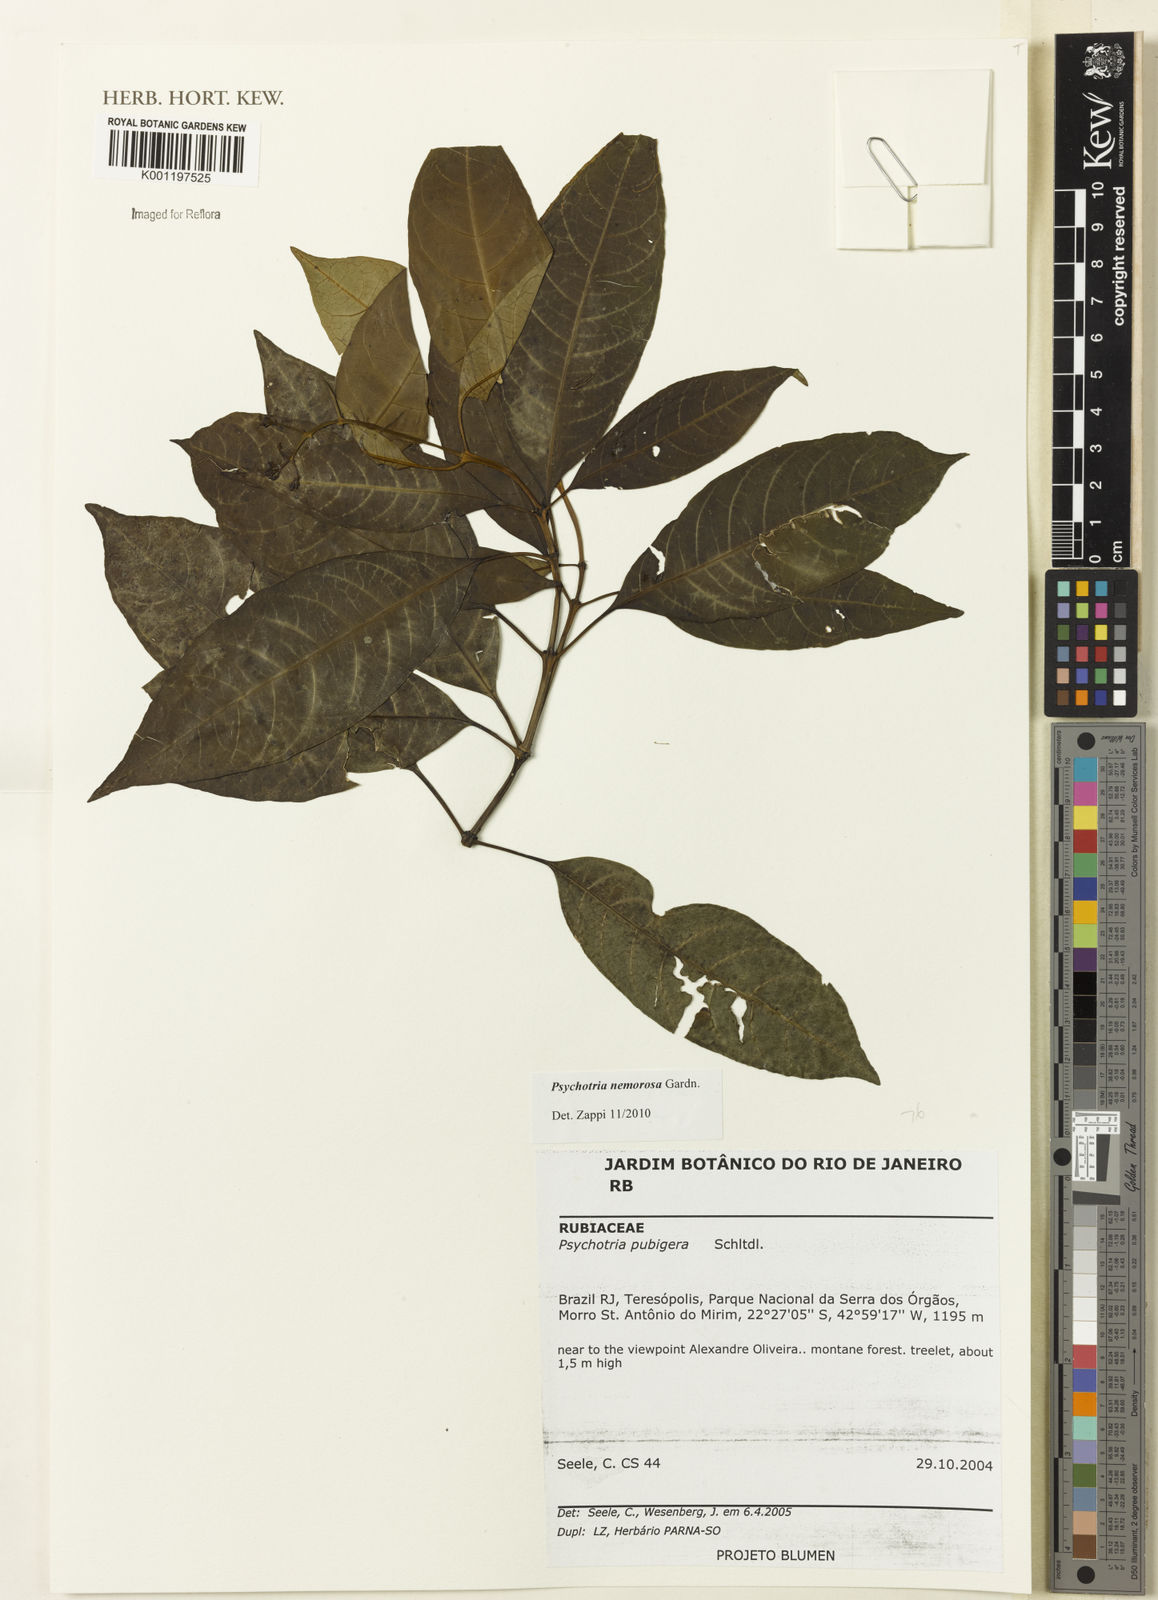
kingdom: Plantae
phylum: Tracheophyta
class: Magnoliopsida
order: Gentianales
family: Rubiaceae
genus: Psychotria
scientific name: Psychotria nemorosa
